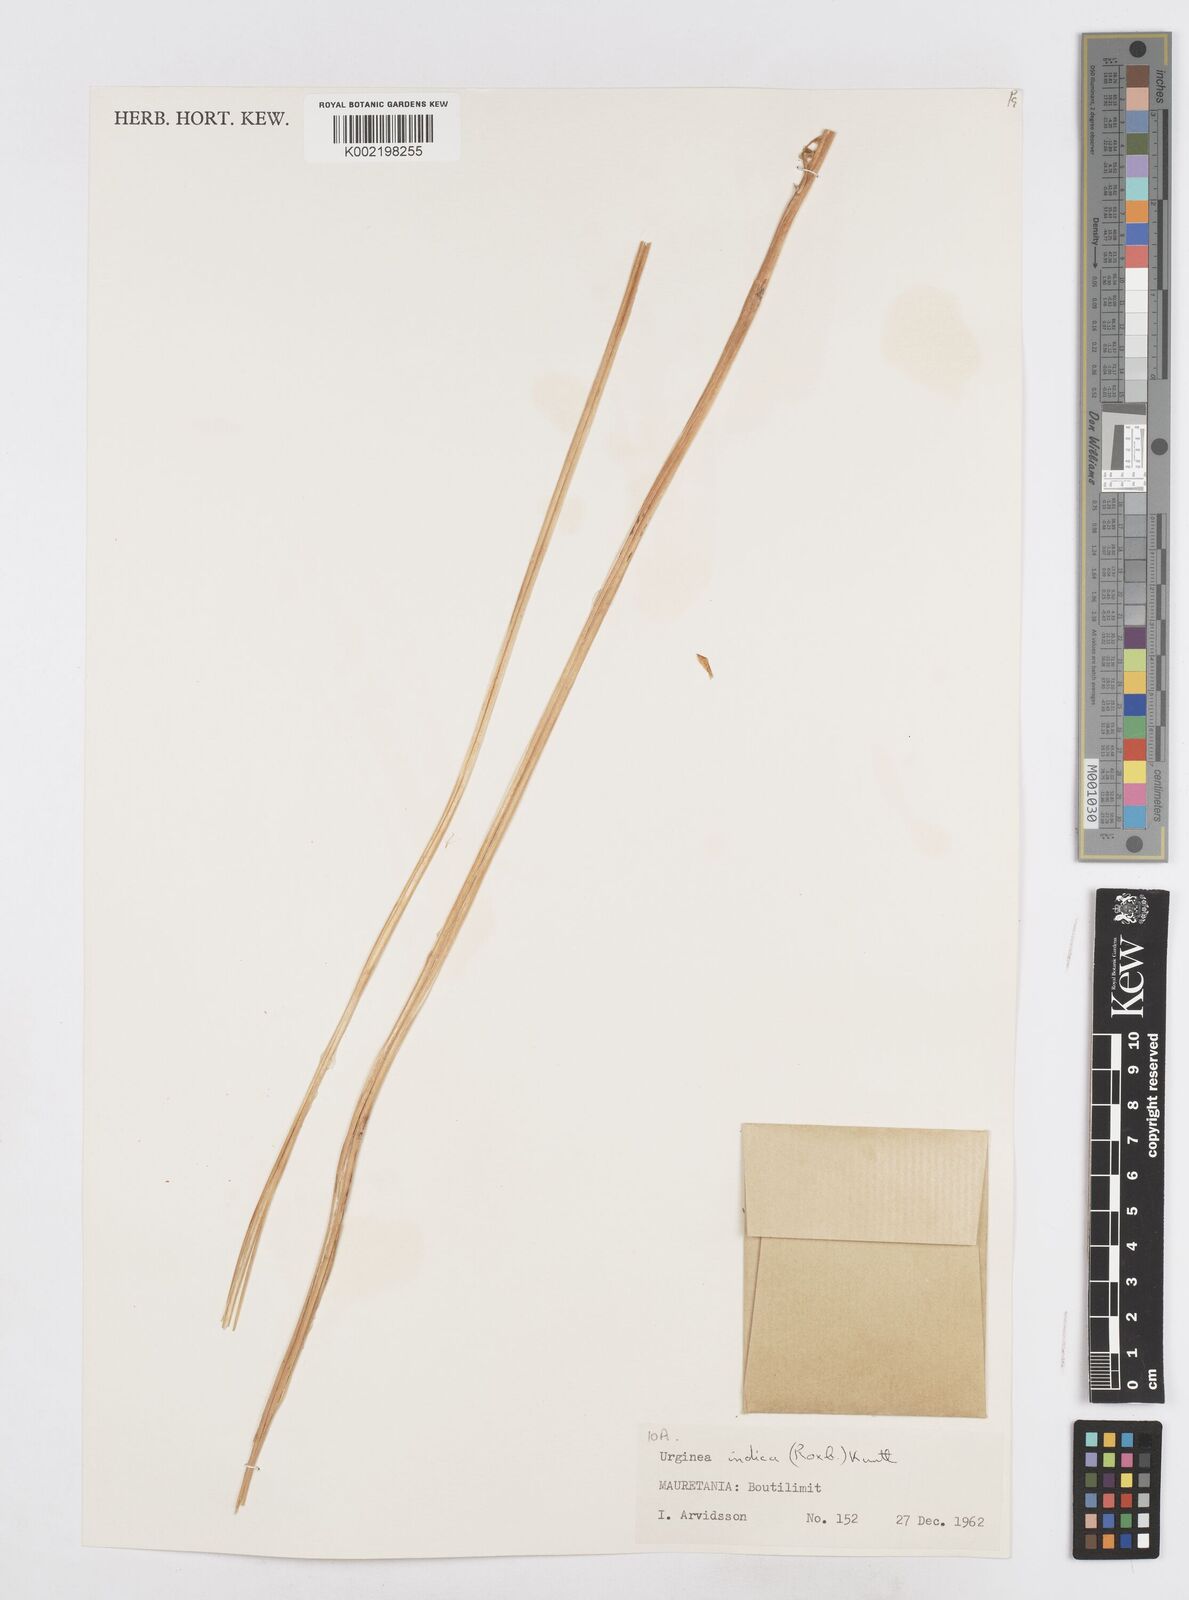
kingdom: Plantae
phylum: Tracheophyta
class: Liliopsida
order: Asparagales
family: Asparagaceae
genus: Drimia
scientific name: Drimia indica
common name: Indian-squill
